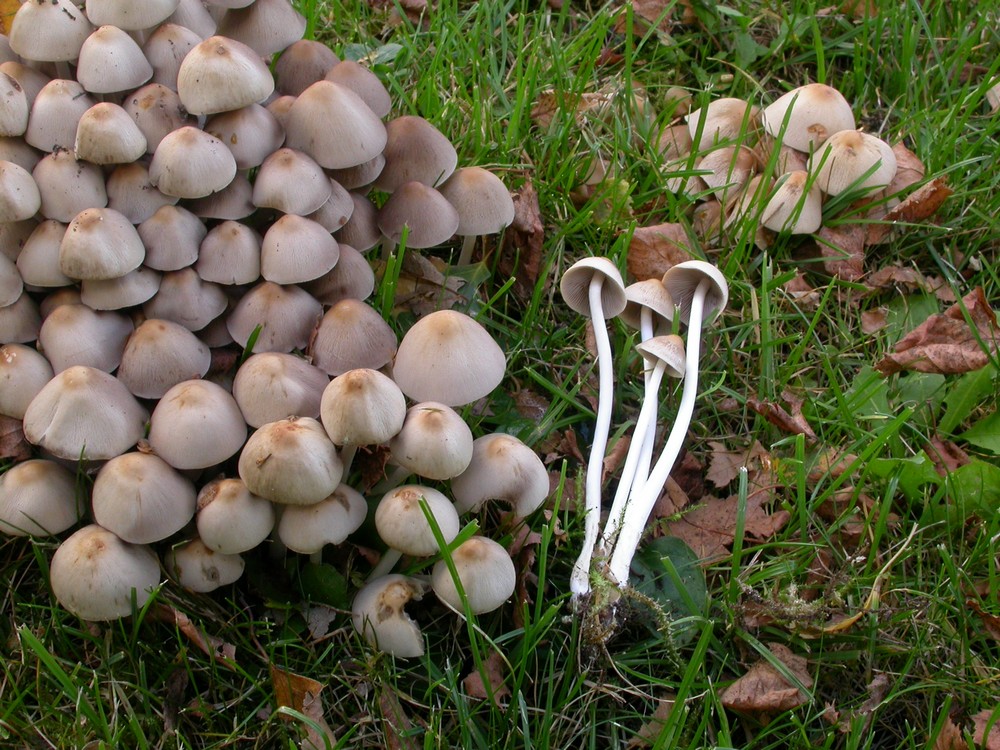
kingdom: Fungi
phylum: Basidiomycota
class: Agaricomycetes
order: Agaricales
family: Psathyrellaceae
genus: Britzelmayria
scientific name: Britzelmayria multipedata
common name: knippe-mørkhat
